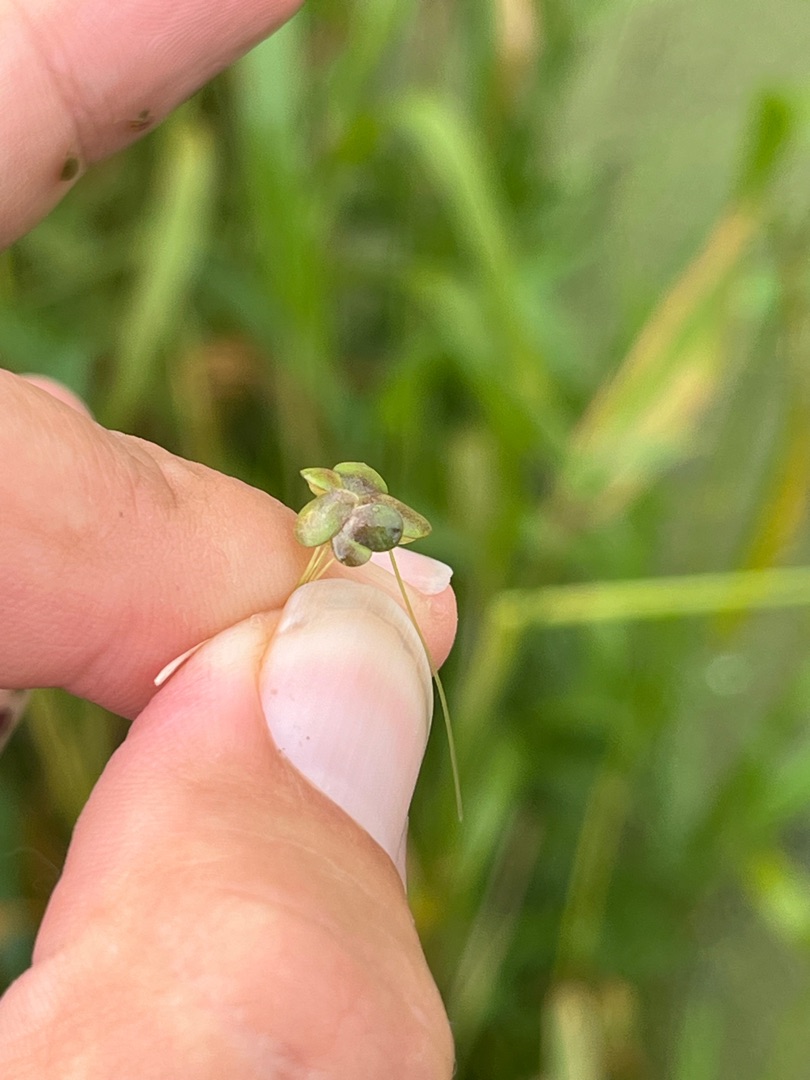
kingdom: Plantae
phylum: Tracheophyta
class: Liliopsida
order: Alismatales
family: Araceae
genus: Lemna
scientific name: Lemna gibba
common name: Tyk andemad
